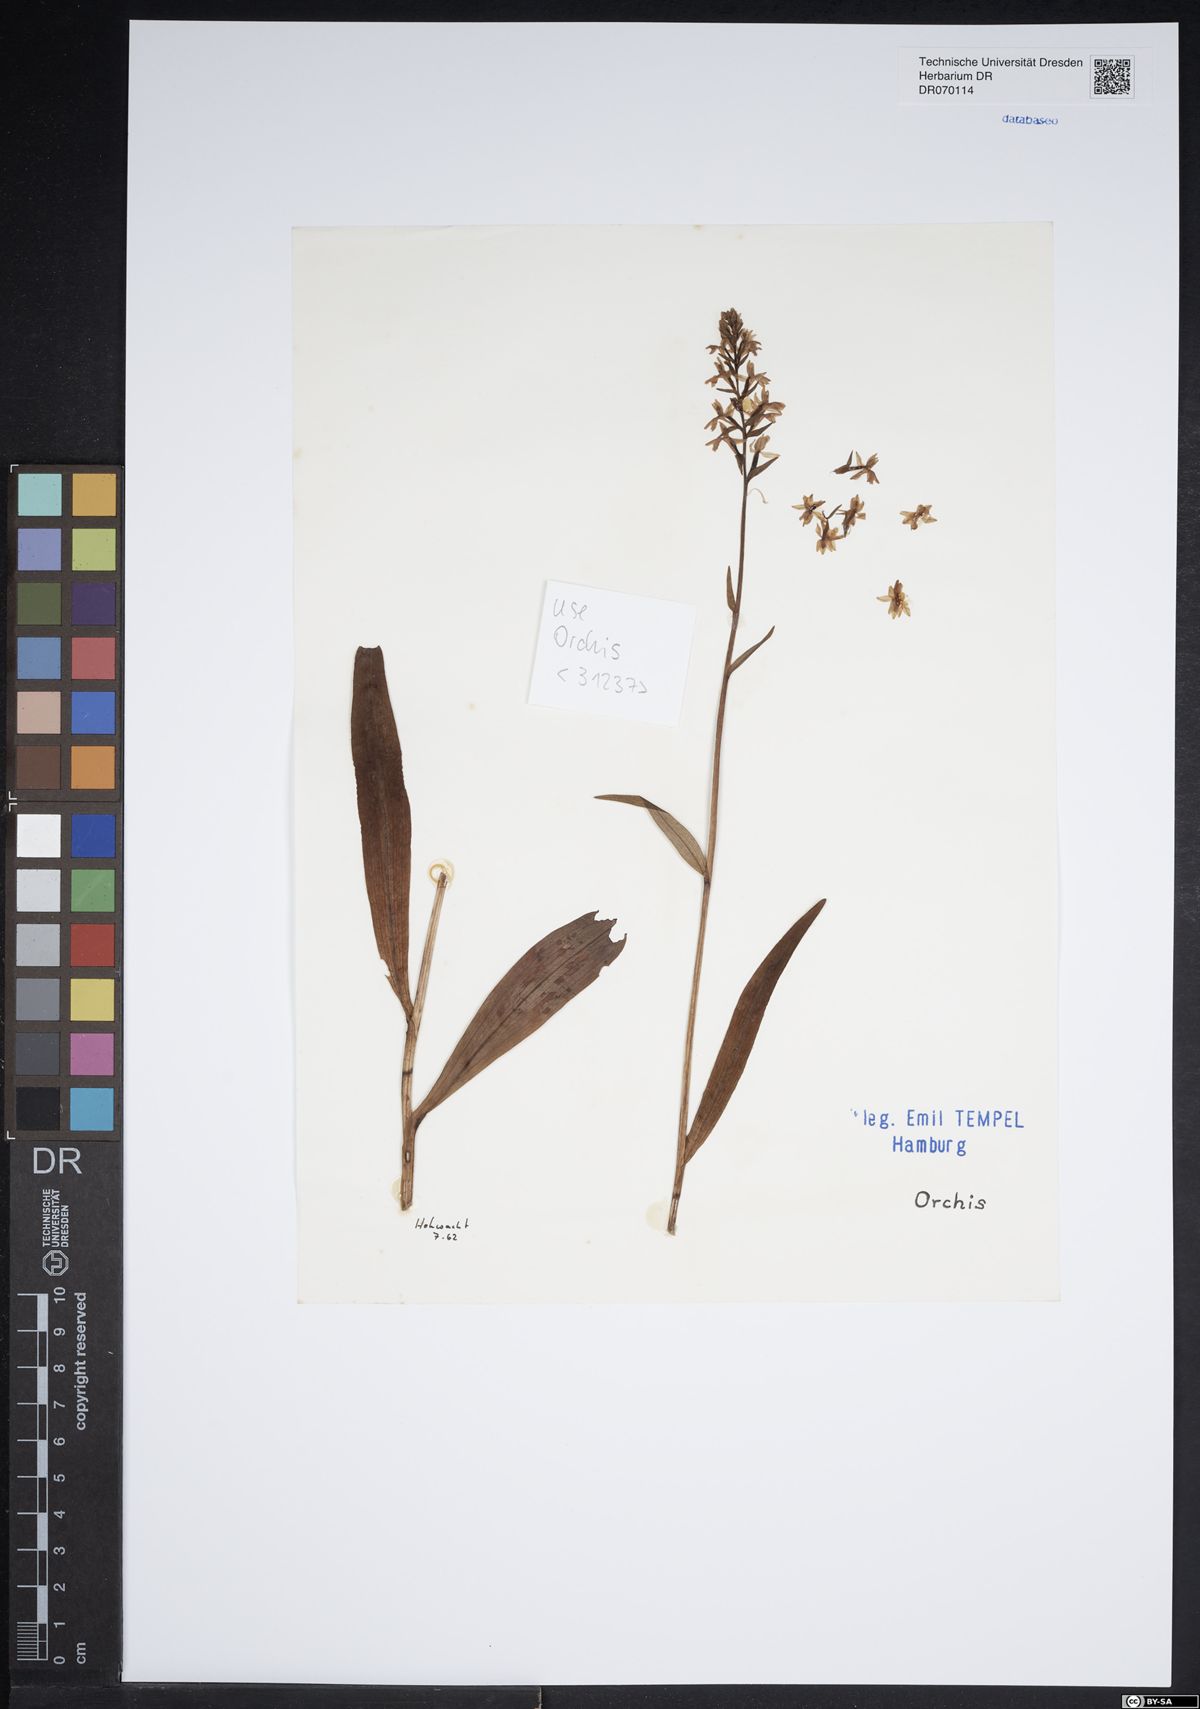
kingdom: Plantae
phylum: Tracheophyta
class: Liliopsida
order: Asparagales
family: Orchidaceae
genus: Orchis
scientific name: Orchis
